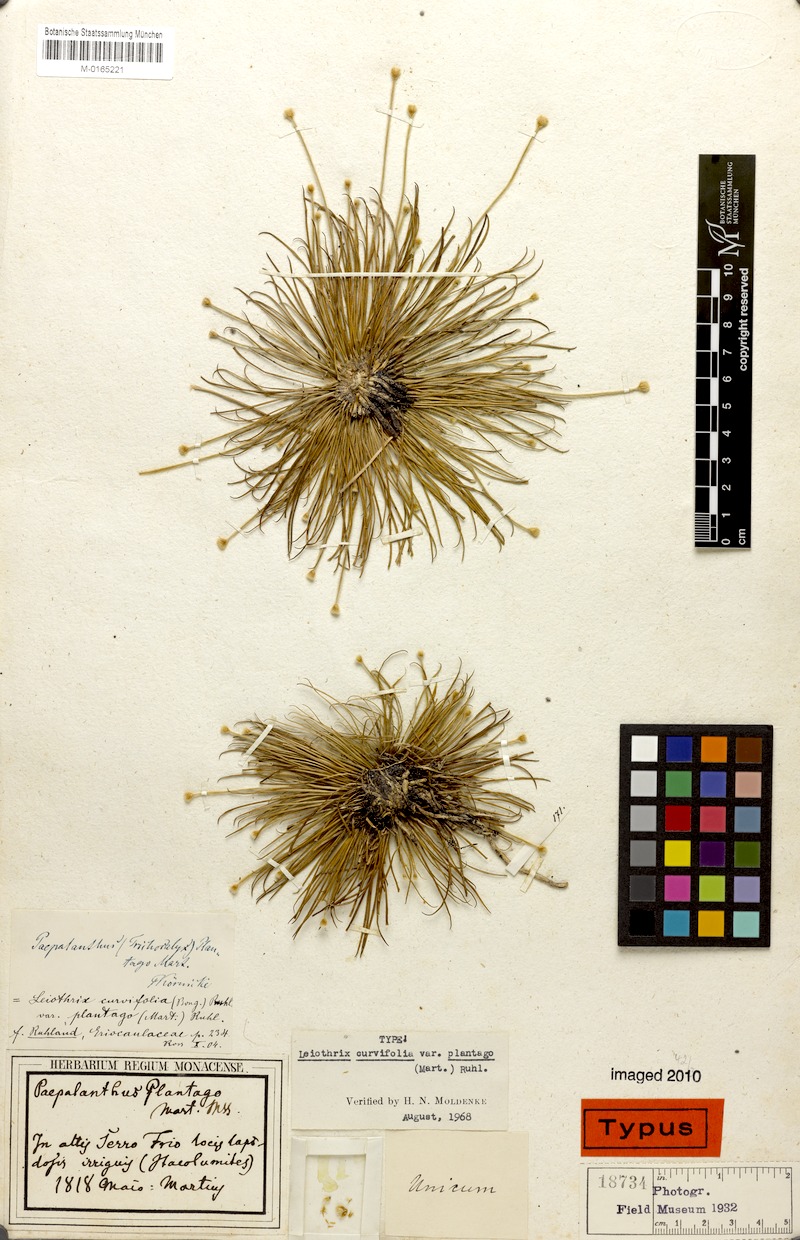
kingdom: Plantae
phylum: Tracheophyta
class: Liliopsida
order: Poales
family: Eriocaulaceae
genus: Leiothrix
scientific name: Leiothrix plantago
